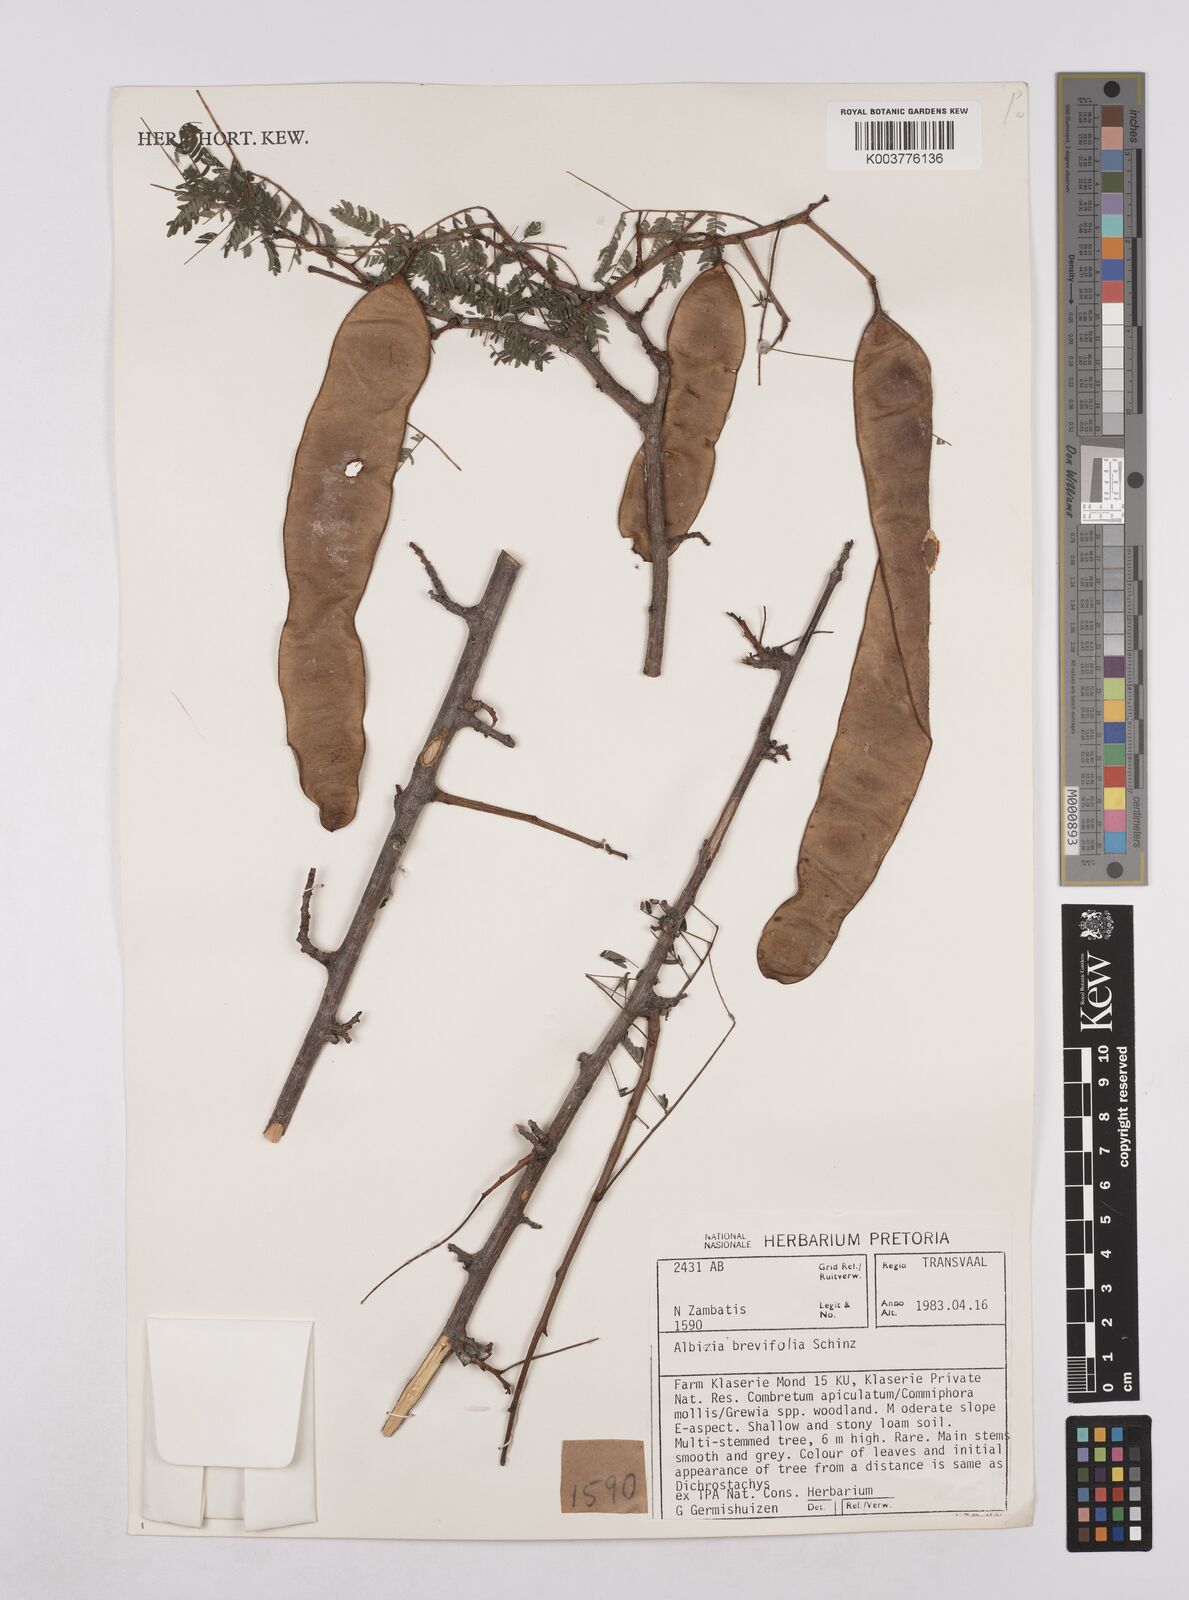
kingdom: Plantae
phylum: Tracheophyta
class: Magnoliopsida
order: Fabales
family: Fabaceae
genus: Albizia
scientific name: Albizia brevifolia
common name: Rock false-thorn
